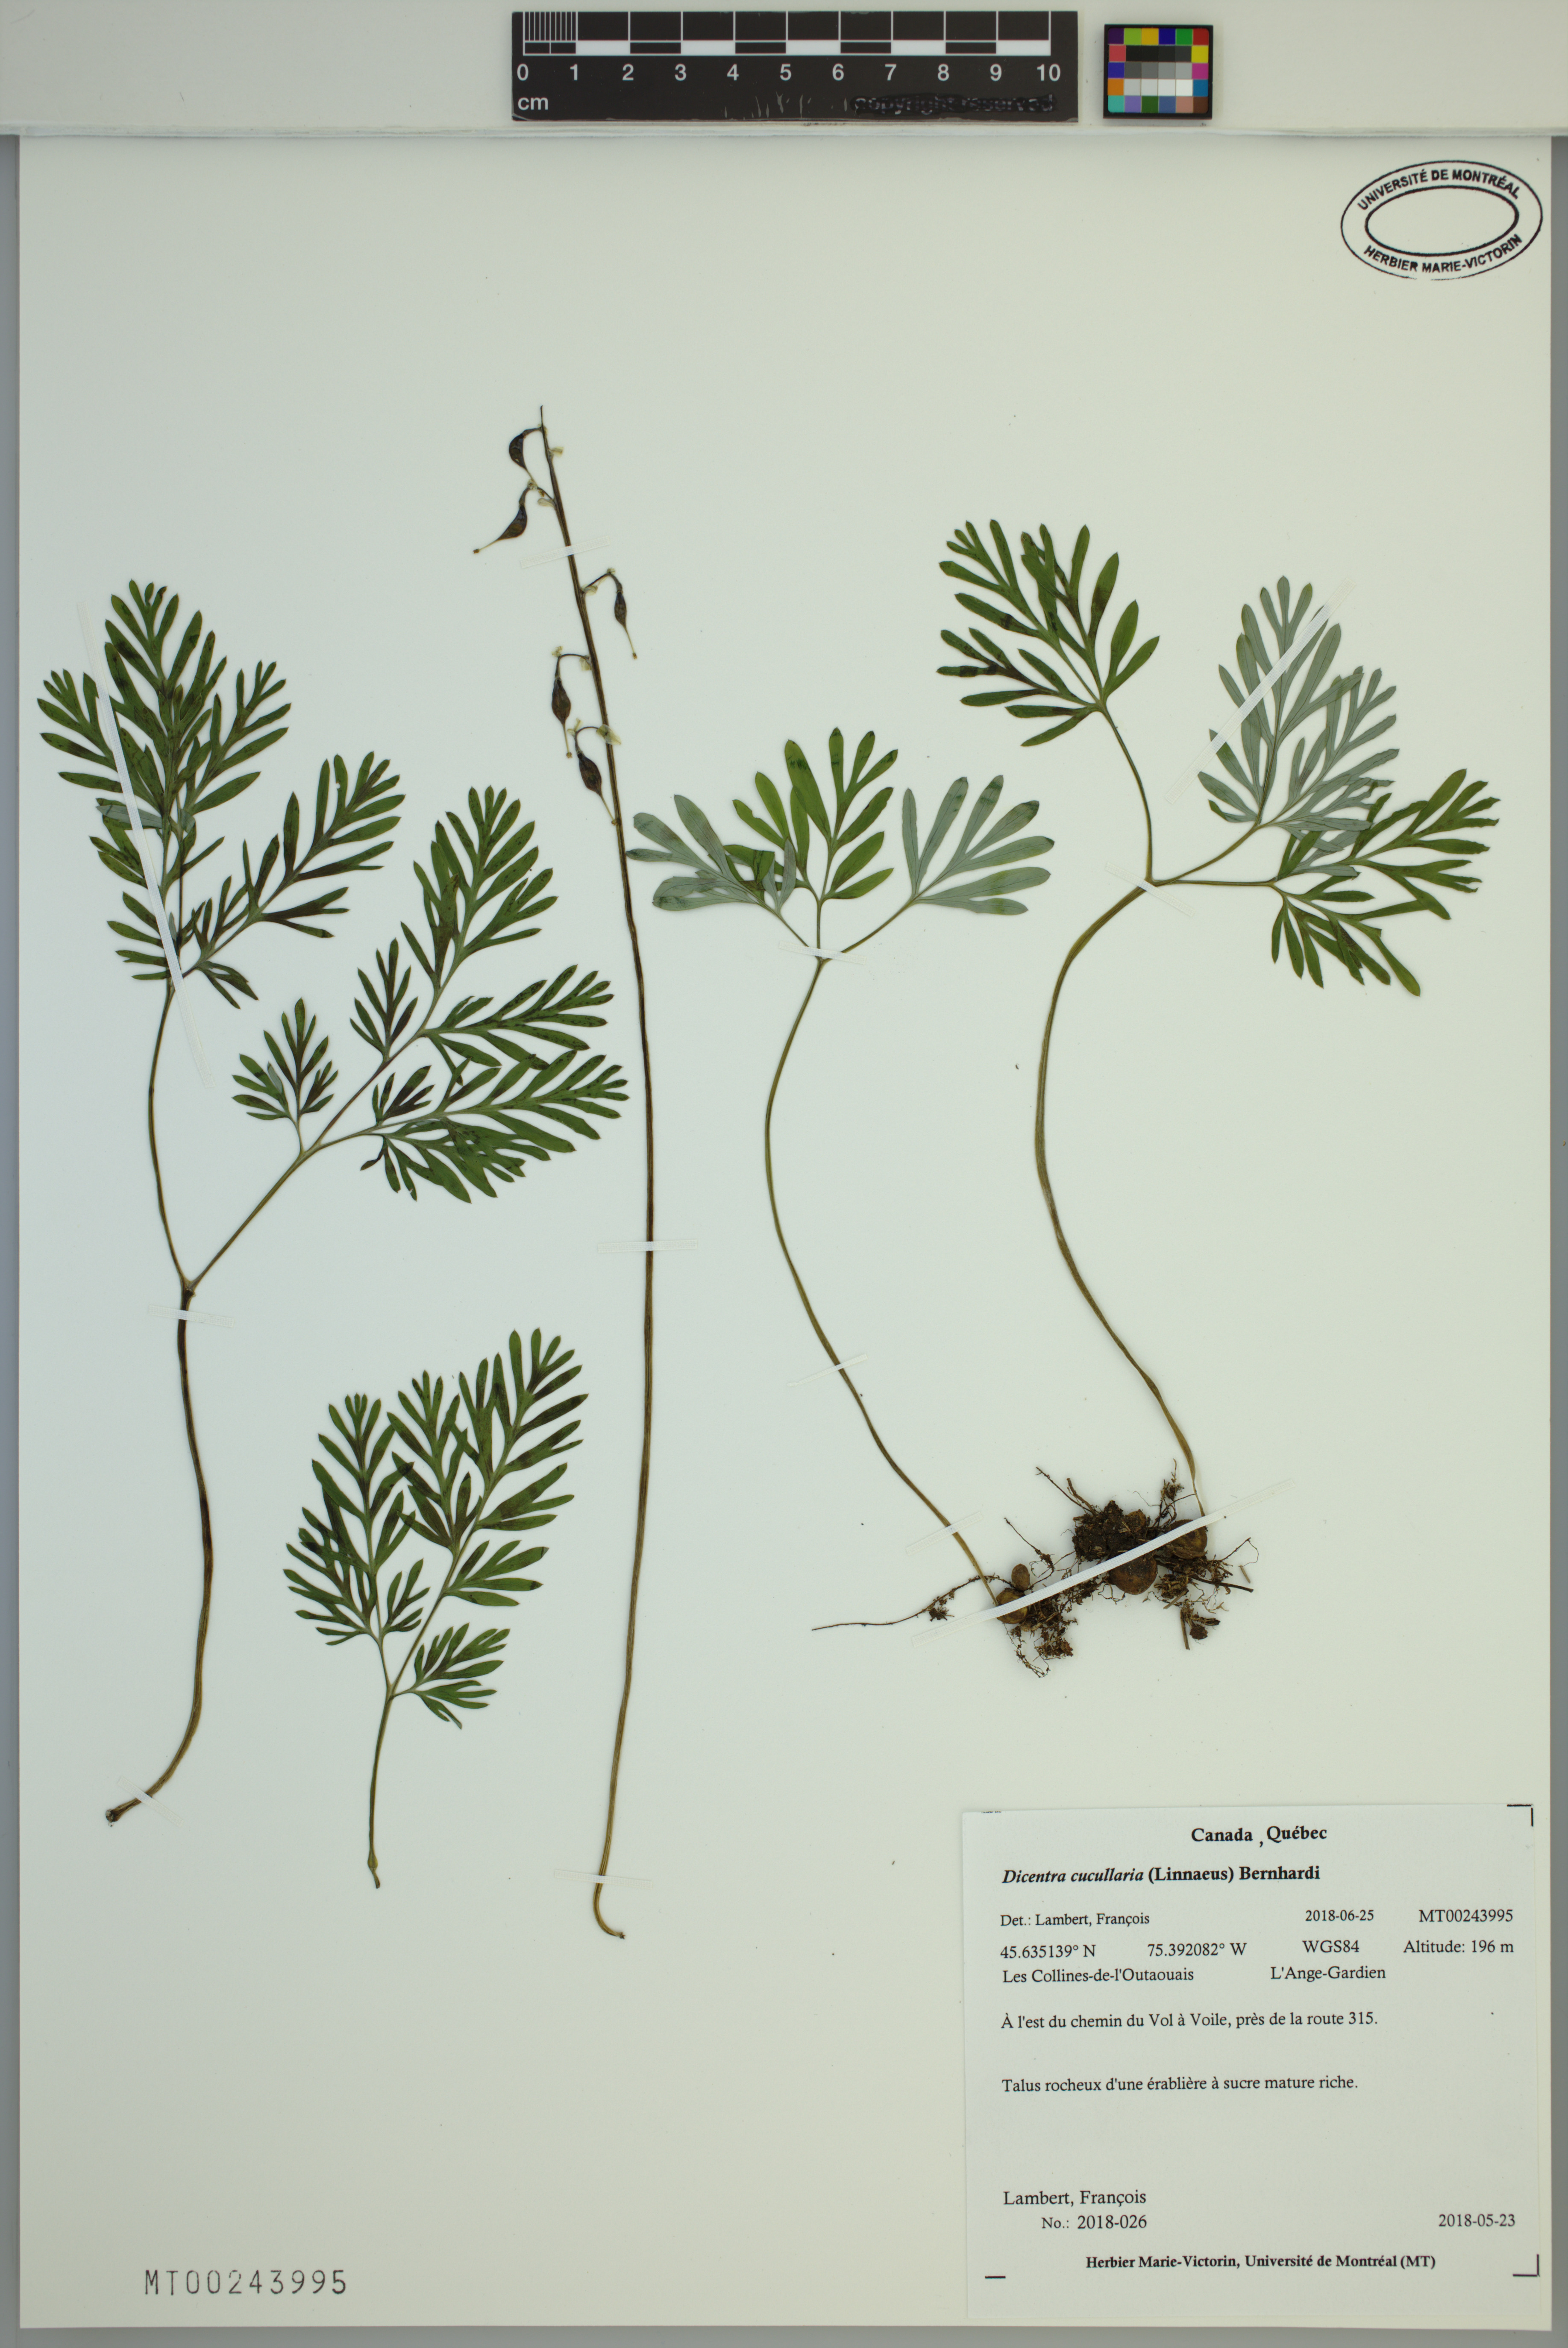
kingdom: Plantae
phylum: Tracheophyta
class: Magnoliopsida
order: Ranunculales
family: Papaveraceae
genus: Dicentra
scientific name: Dicentra cucullaria
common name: Dutchman's breeches
